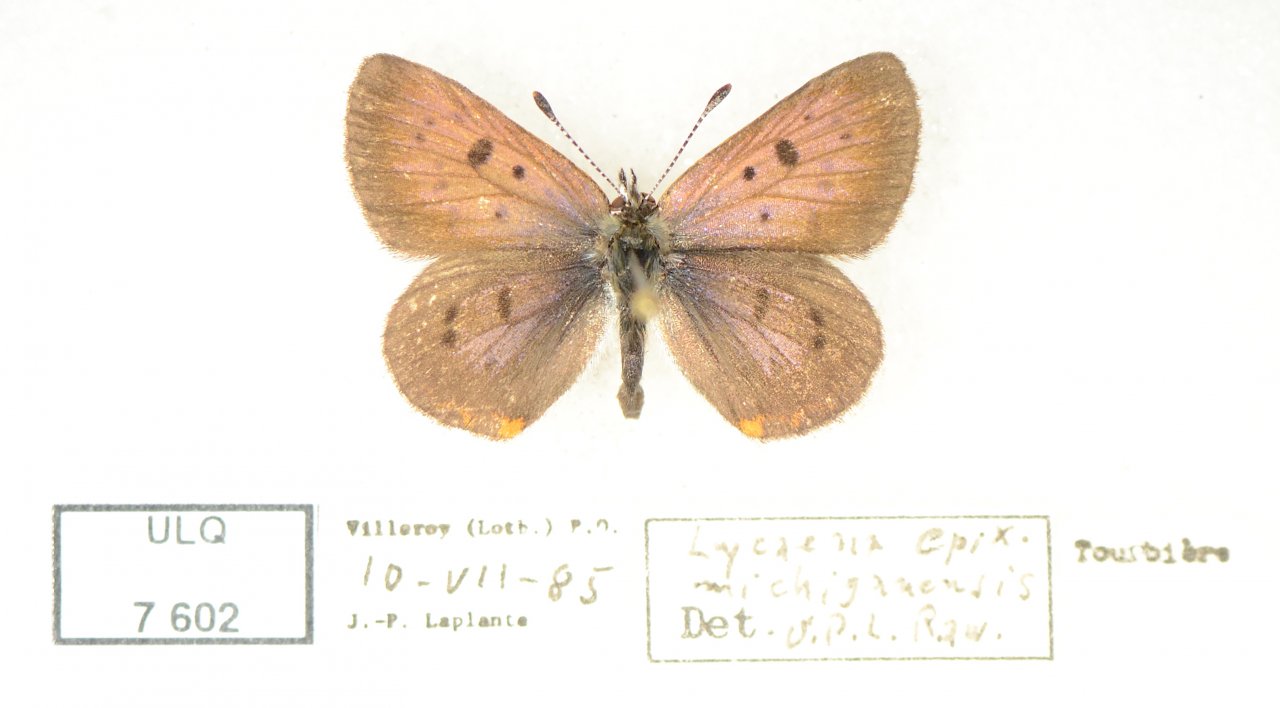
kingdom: Animalia
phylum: Arthropoda
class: Insecta
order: Lepidoptera
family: Sesiidae
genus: Sesia
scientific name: Sesia Lycaena epixanthe
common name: Bog Copper
